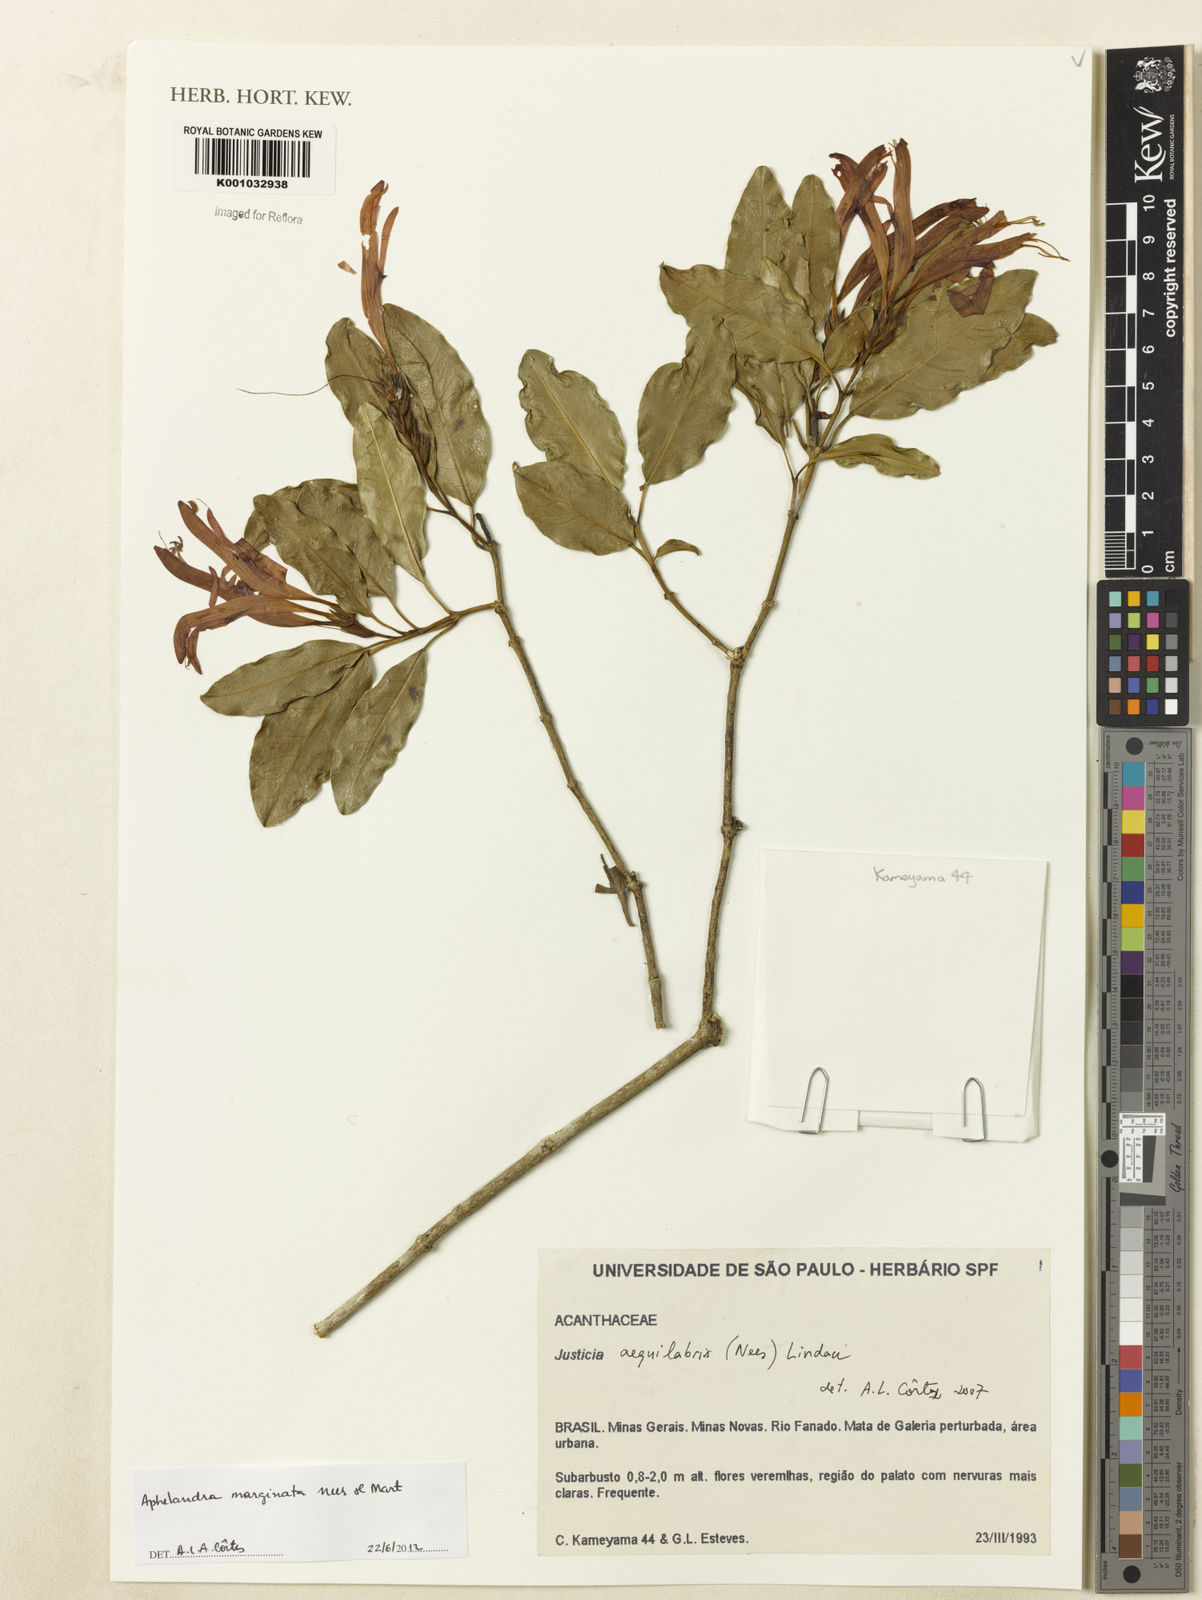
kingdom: Plantae
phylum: Tracheophyta
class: Magnoliopsida
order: Lamiales
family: Acanthaceae
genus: Aphelandra
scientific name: Aphelandra marginata
